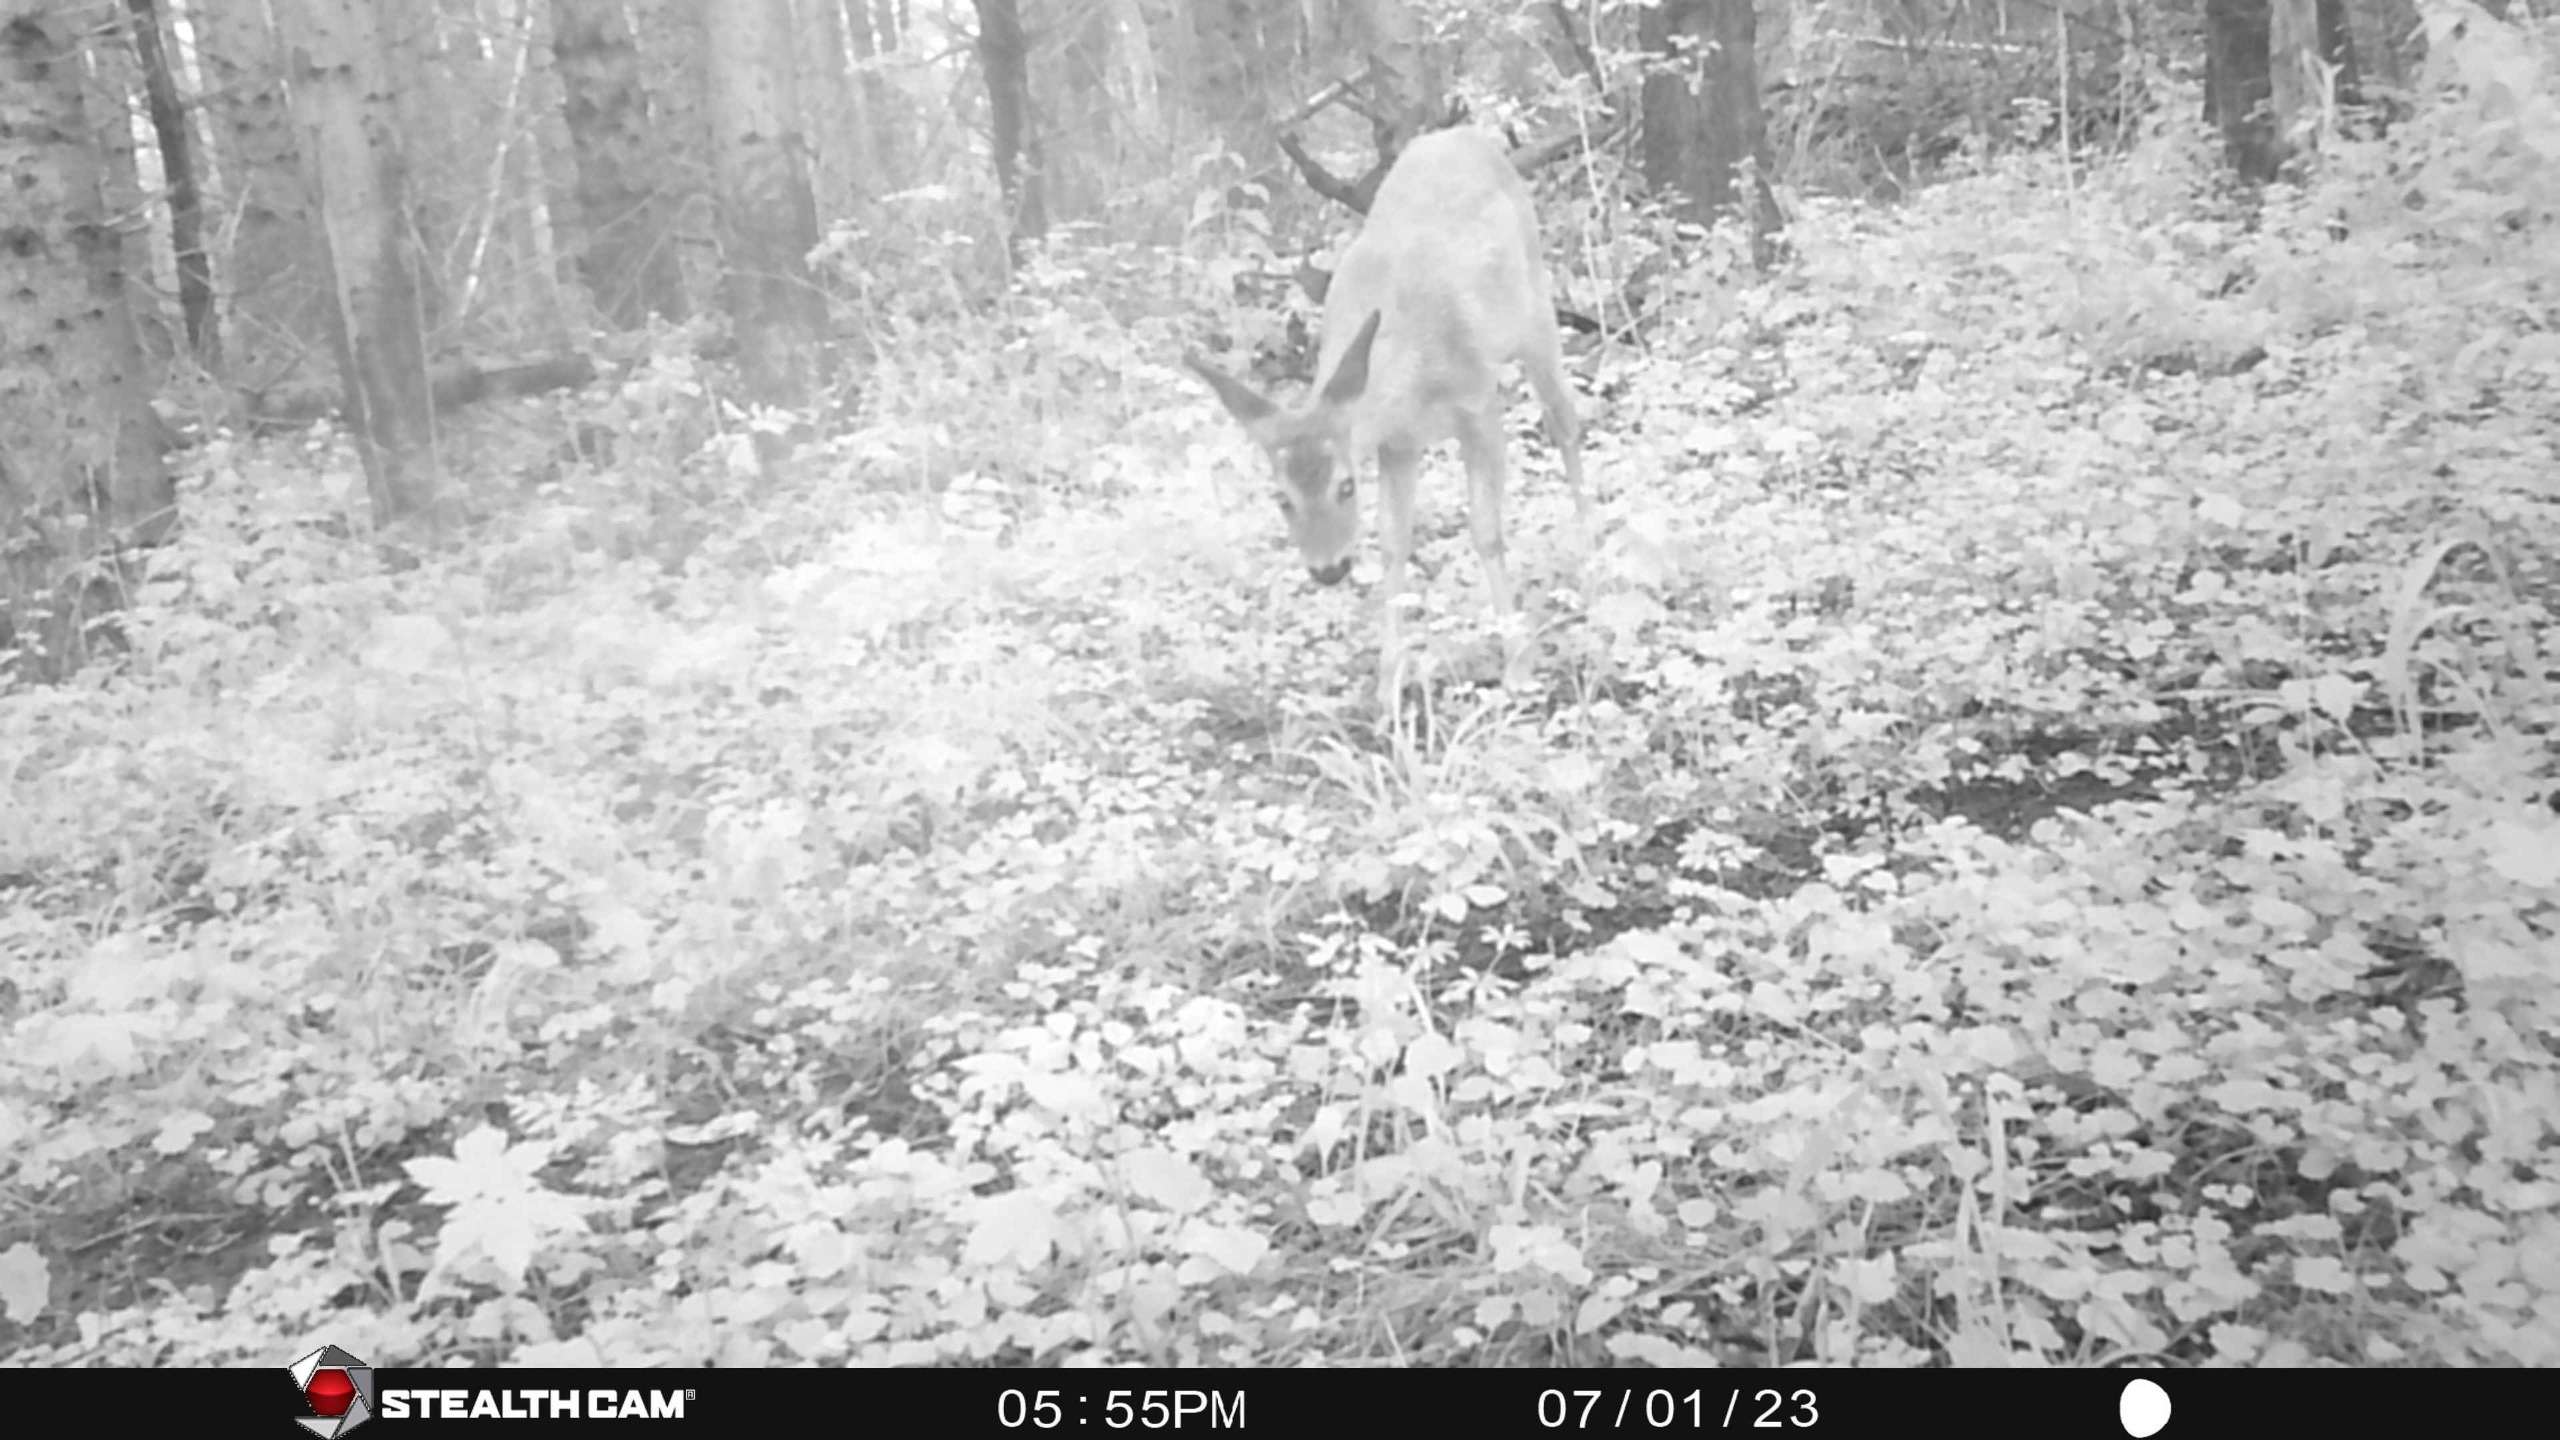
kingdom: Animalia
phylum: Chordata
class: Mammalia
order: Artiodactyla
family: Cervidae
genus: Capreolus
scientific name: Capreolus capreolus
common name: Rådyr
